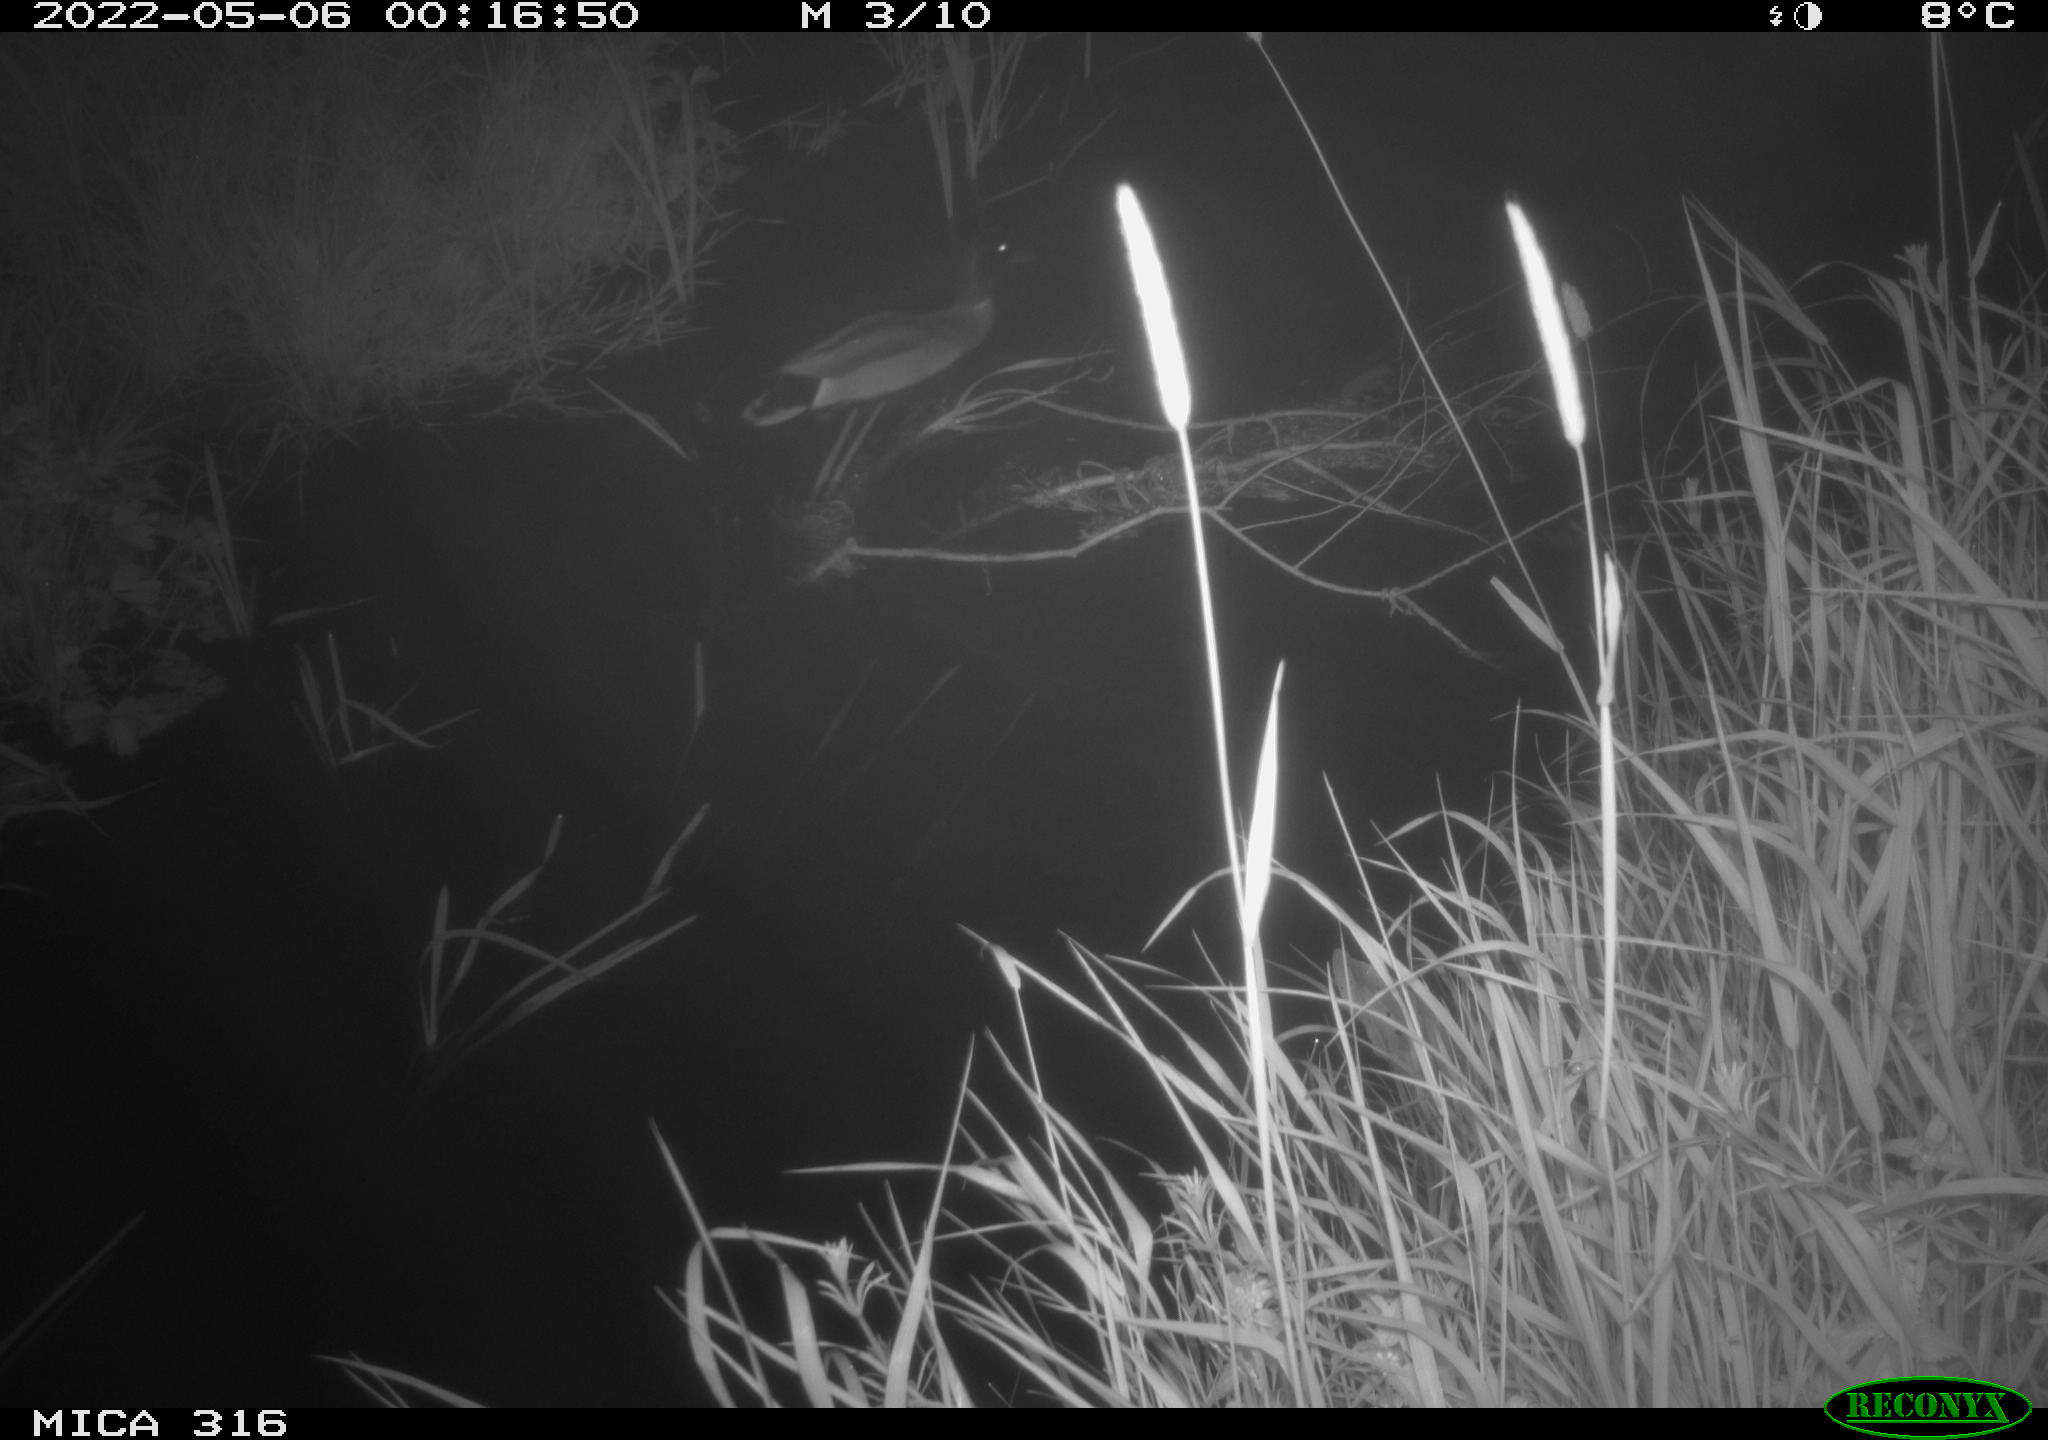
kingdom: Animalia
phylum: Chordata
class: Aves
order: Gruiformes
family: Rallidae
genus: Gallinula
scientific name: Gallinula chloropus
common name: Common moorhen
